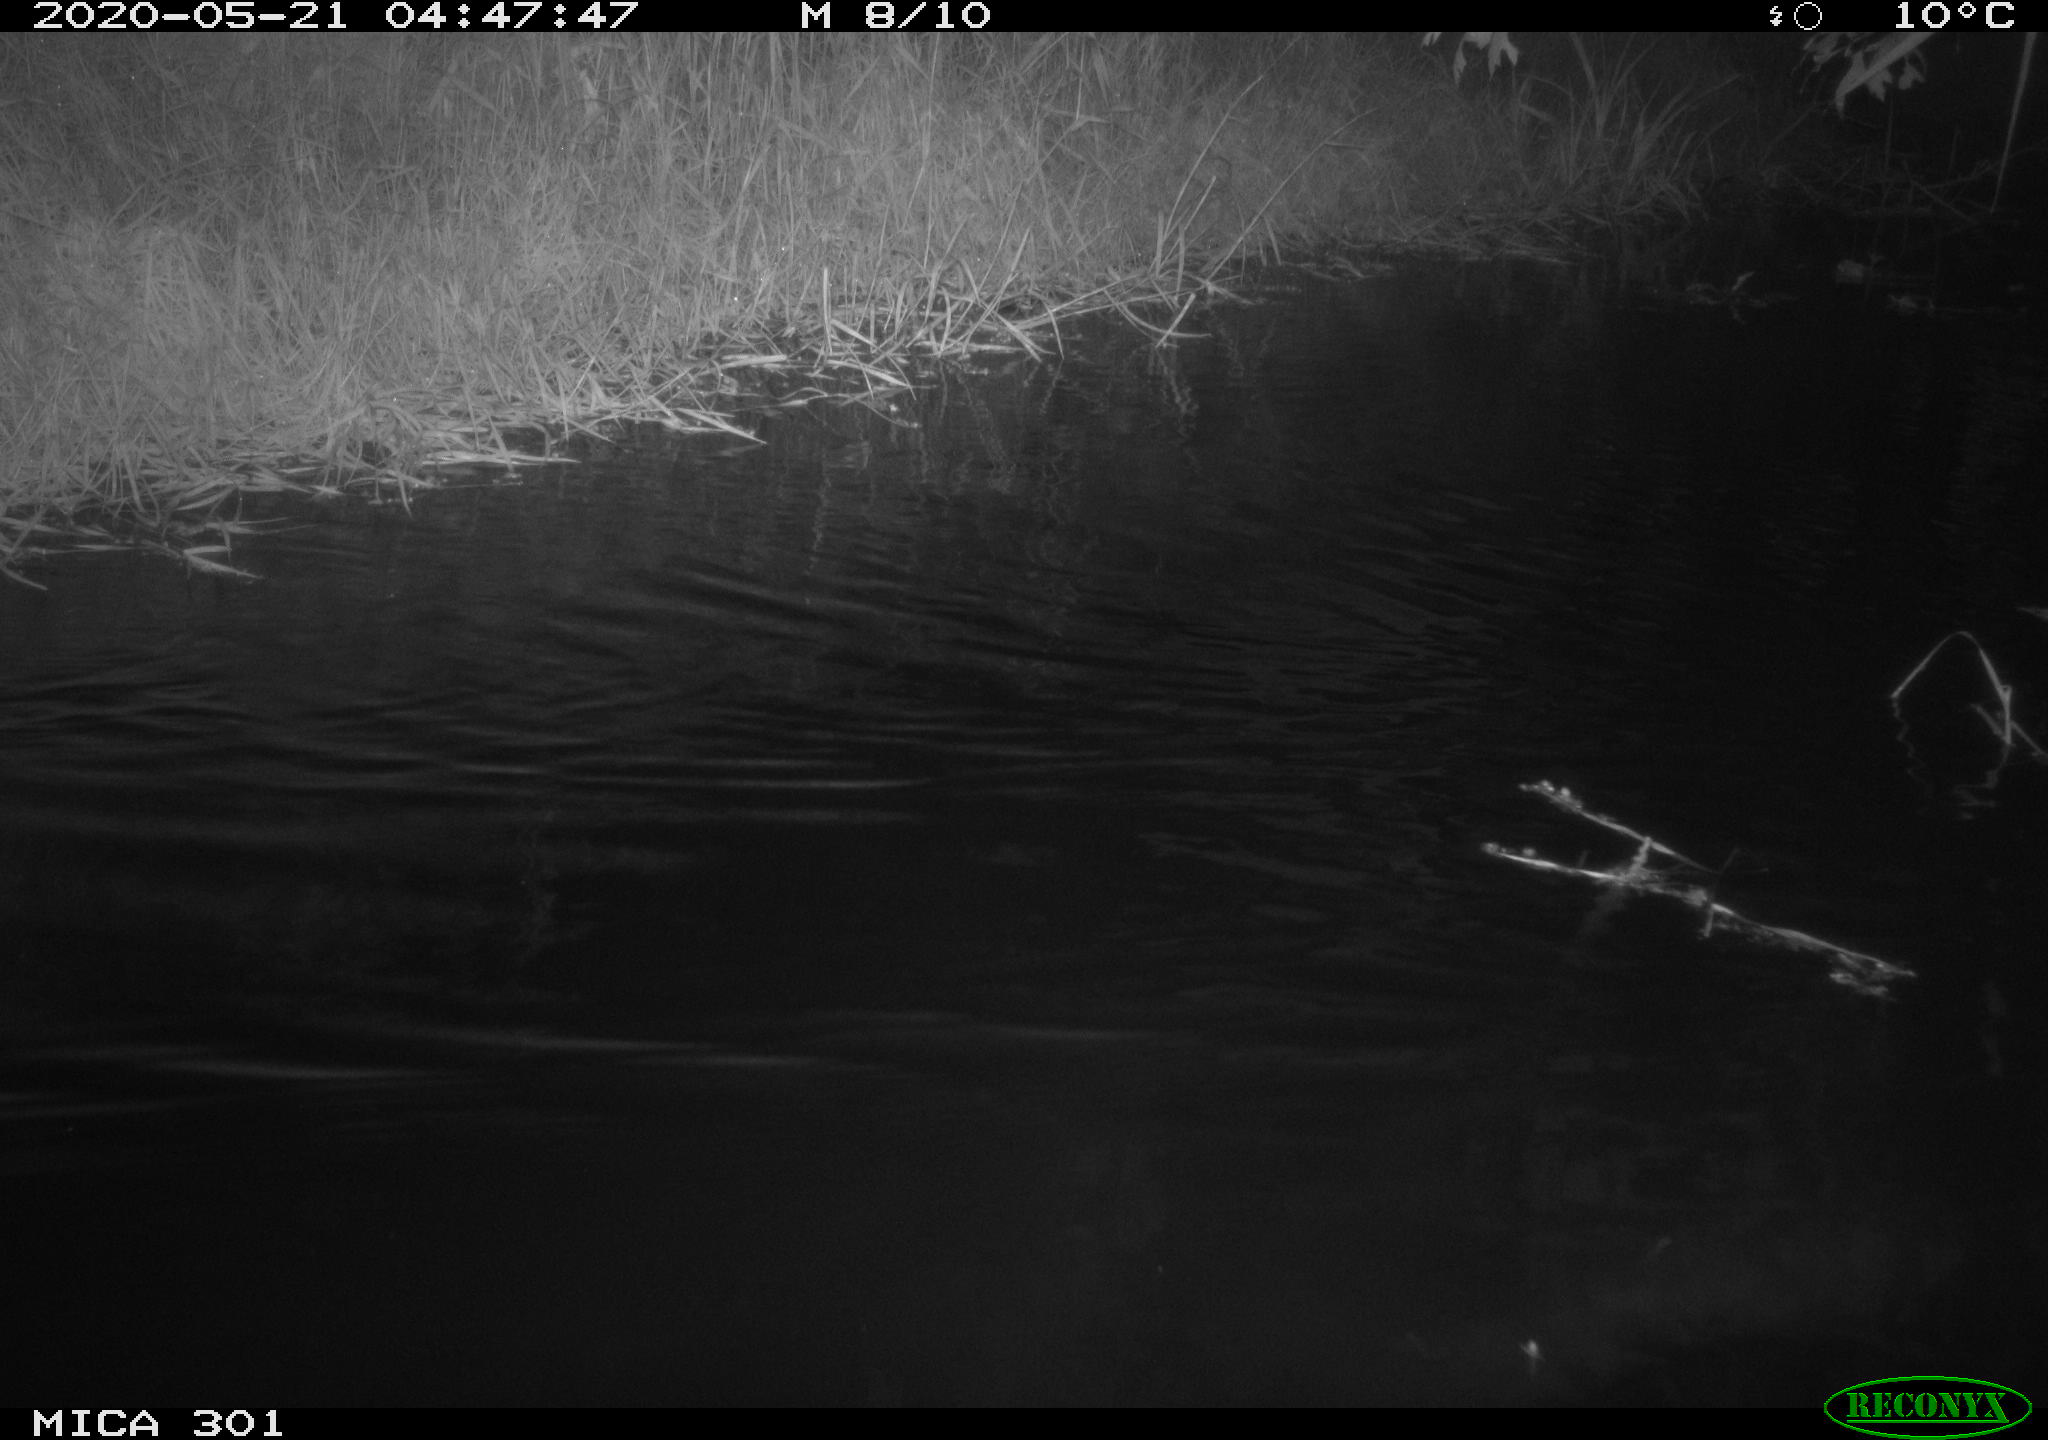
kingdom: Animalia
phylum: Chordata
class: Aves
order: Anseriformes
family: Anatidae
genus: Mareca
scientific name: Mareca strepera
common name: Gadwall
